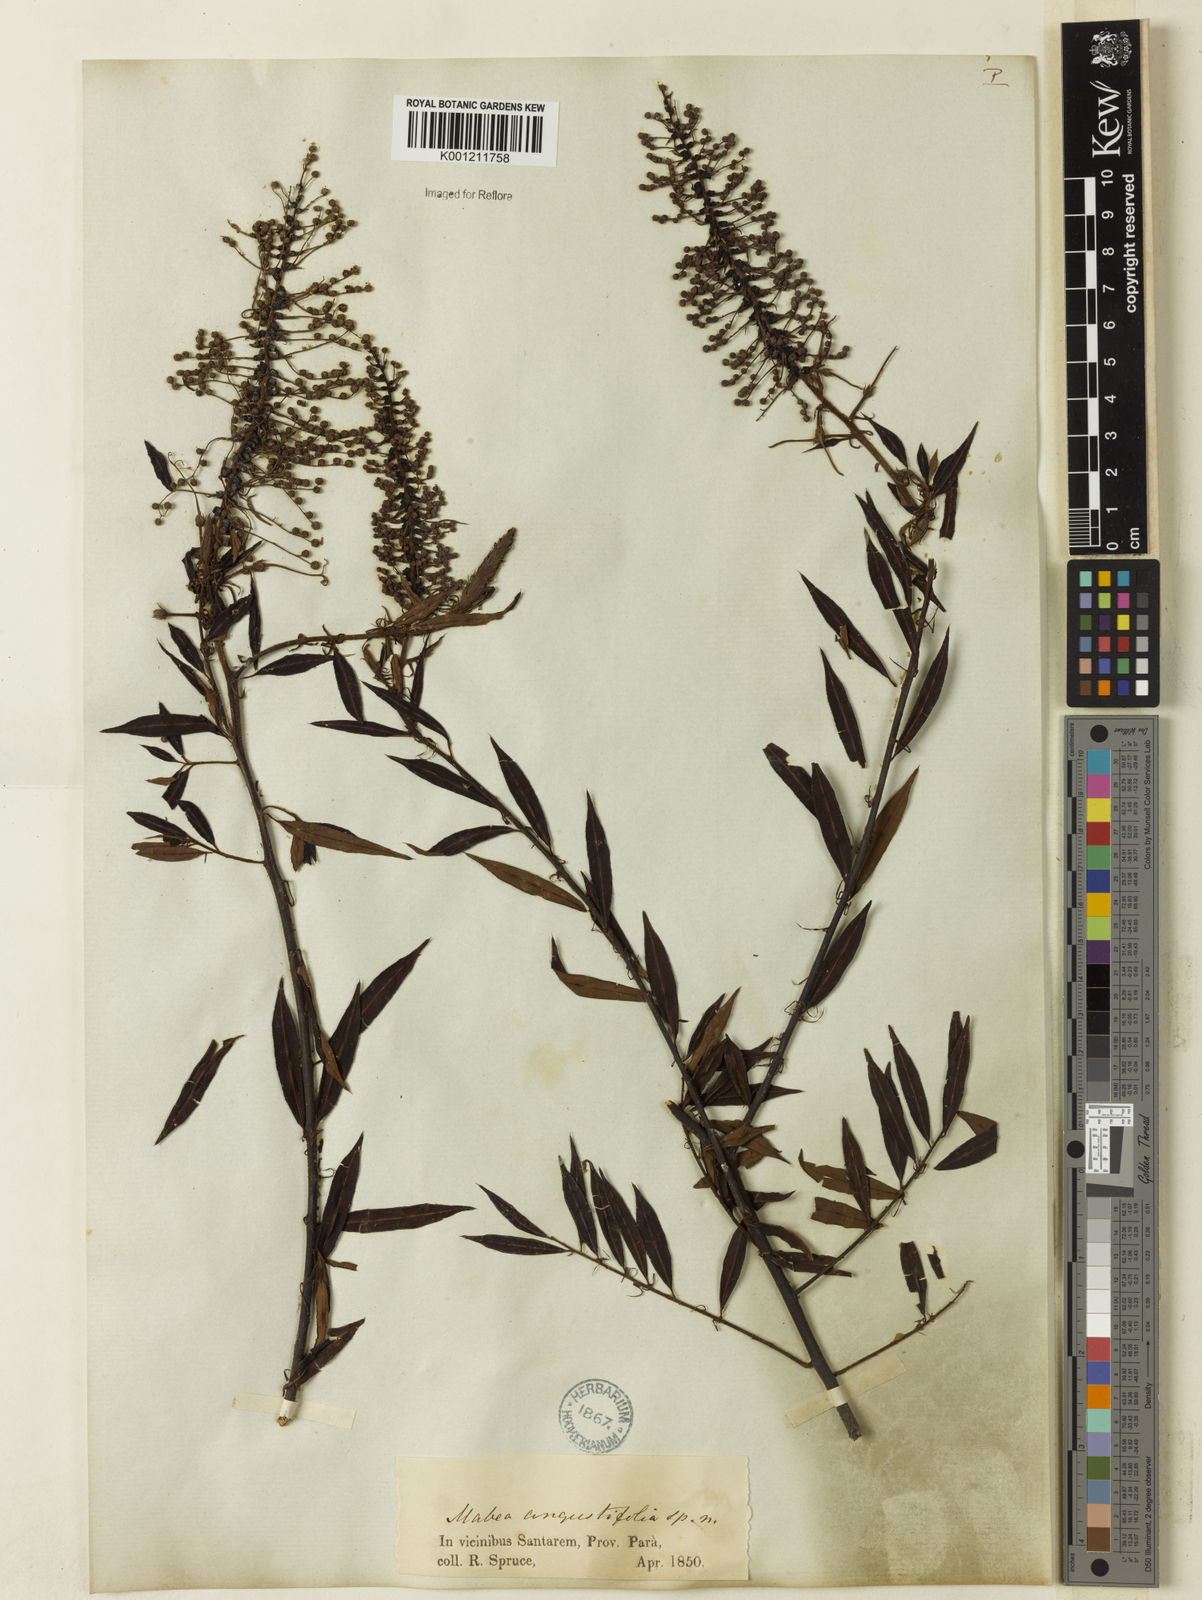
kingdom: Plantae
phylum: Tracheophyta
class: Magnoliopsida
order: Malpighiales
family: Euphorbiaceae
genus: Mabea
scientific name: Mabea angustifolia
